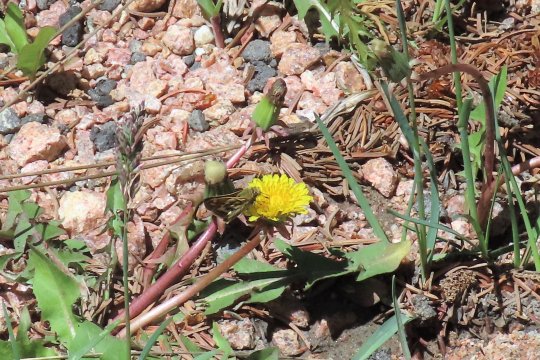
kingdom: Animalia
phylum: Arthropoda
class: Insecta
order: Lepidoptera
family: Hesperiidae
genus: Polites
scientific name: Polites sabuleti
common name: Draco Skipper
